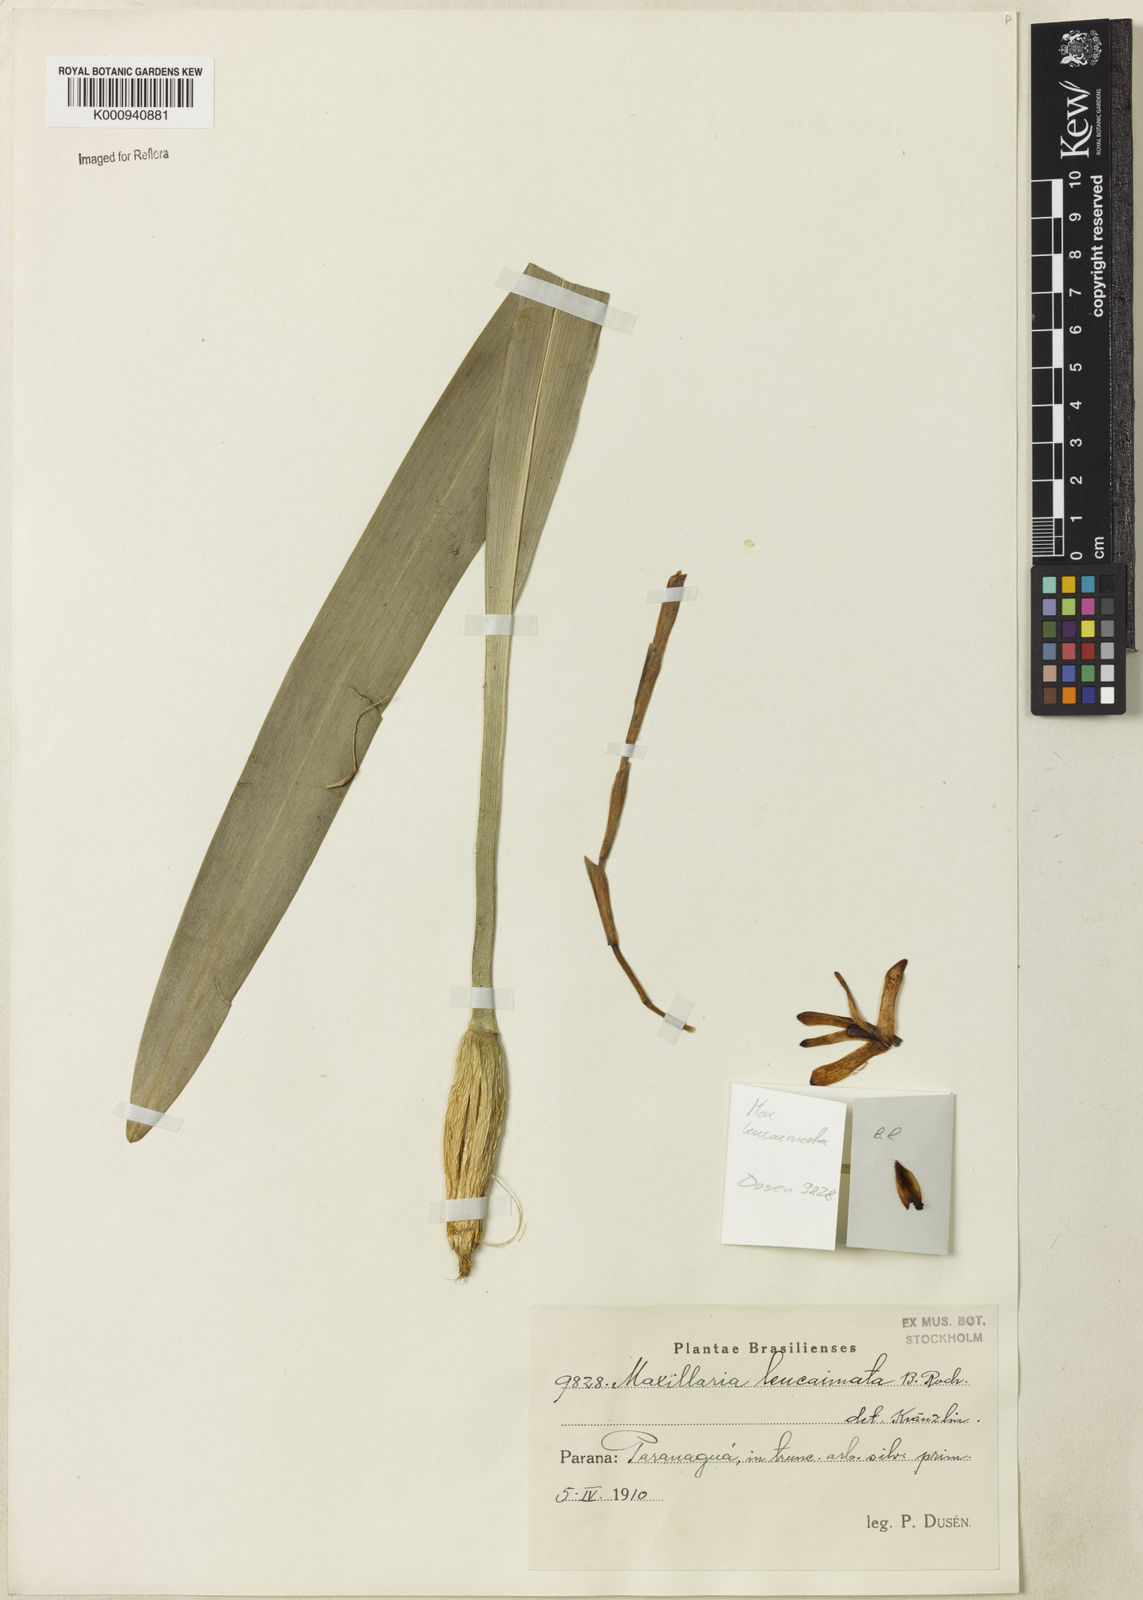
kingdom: Plantae
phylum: Tracheophyta
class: Liliopsida
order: Asparagales
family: Orchidaceae
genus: Maxillaria
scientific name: Maxillaria leucaimata
